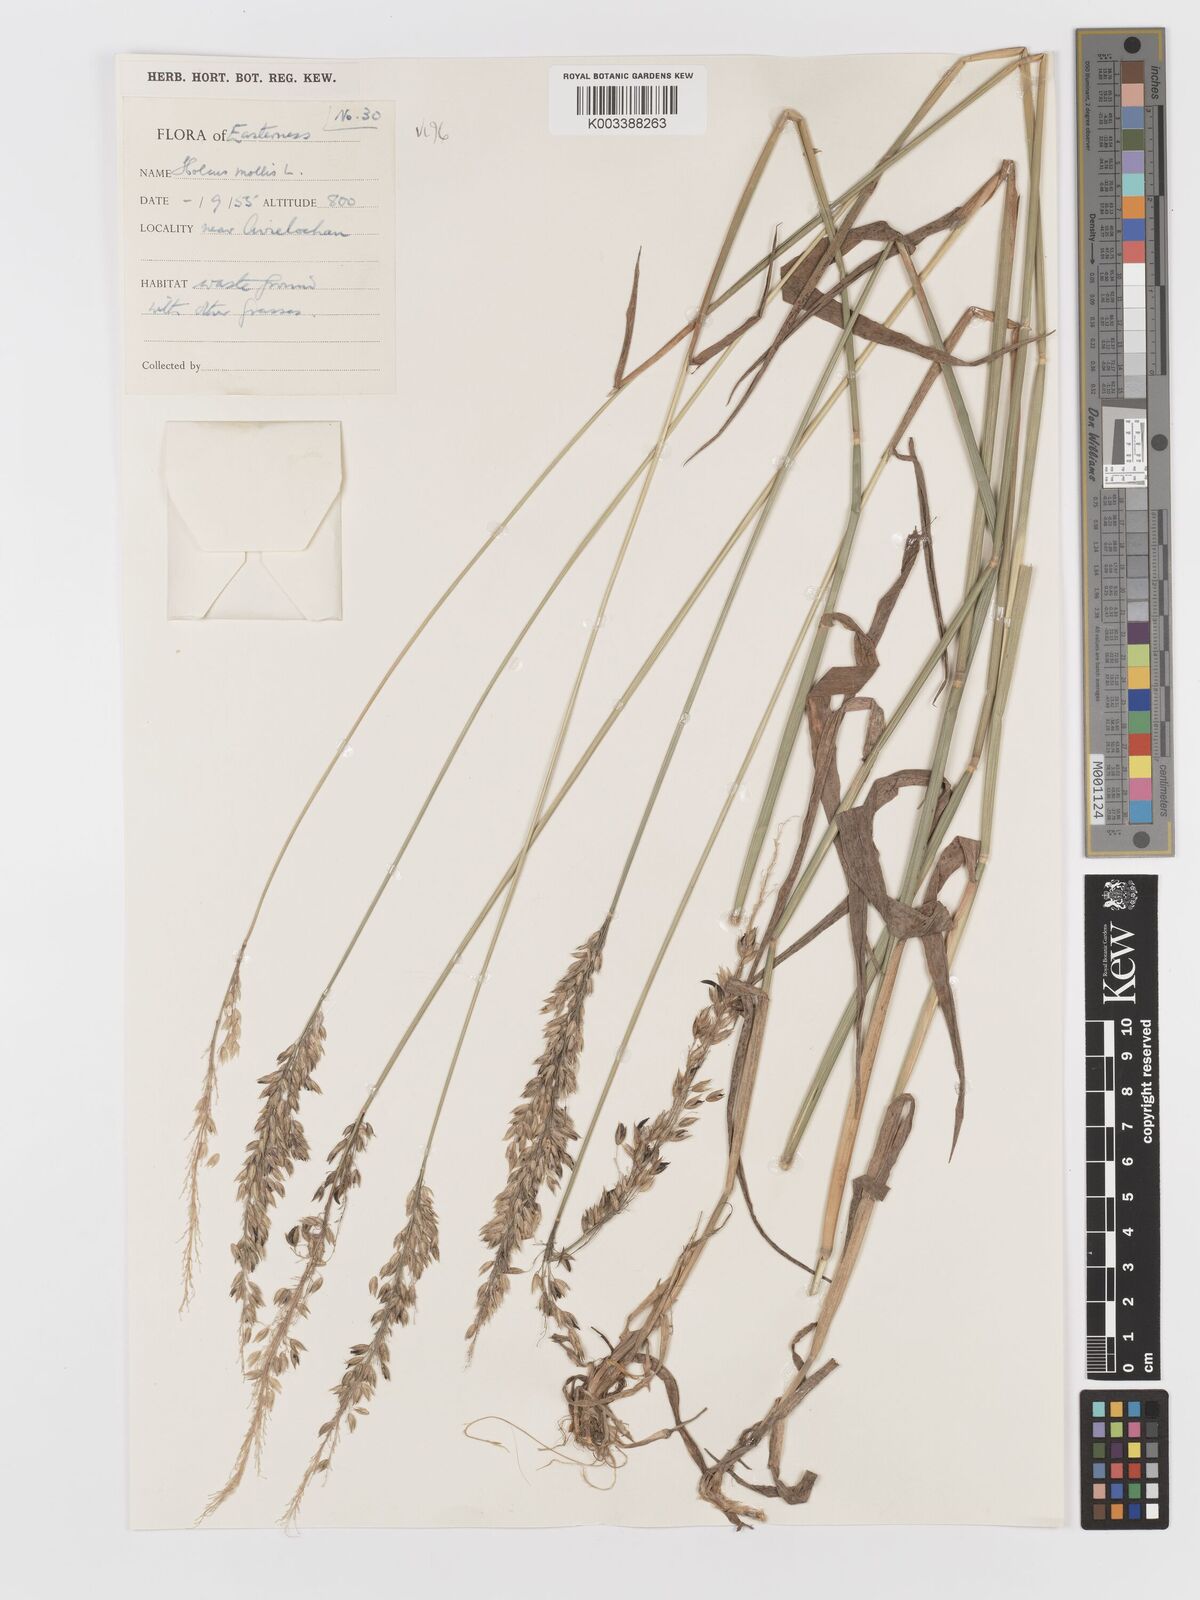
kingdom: Plantae
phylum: Tracheophyta
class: Liliopsida
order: Poales
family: Poaceae
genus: Holcus
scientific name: Holcus mollis
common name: Creeping velvetgrass
